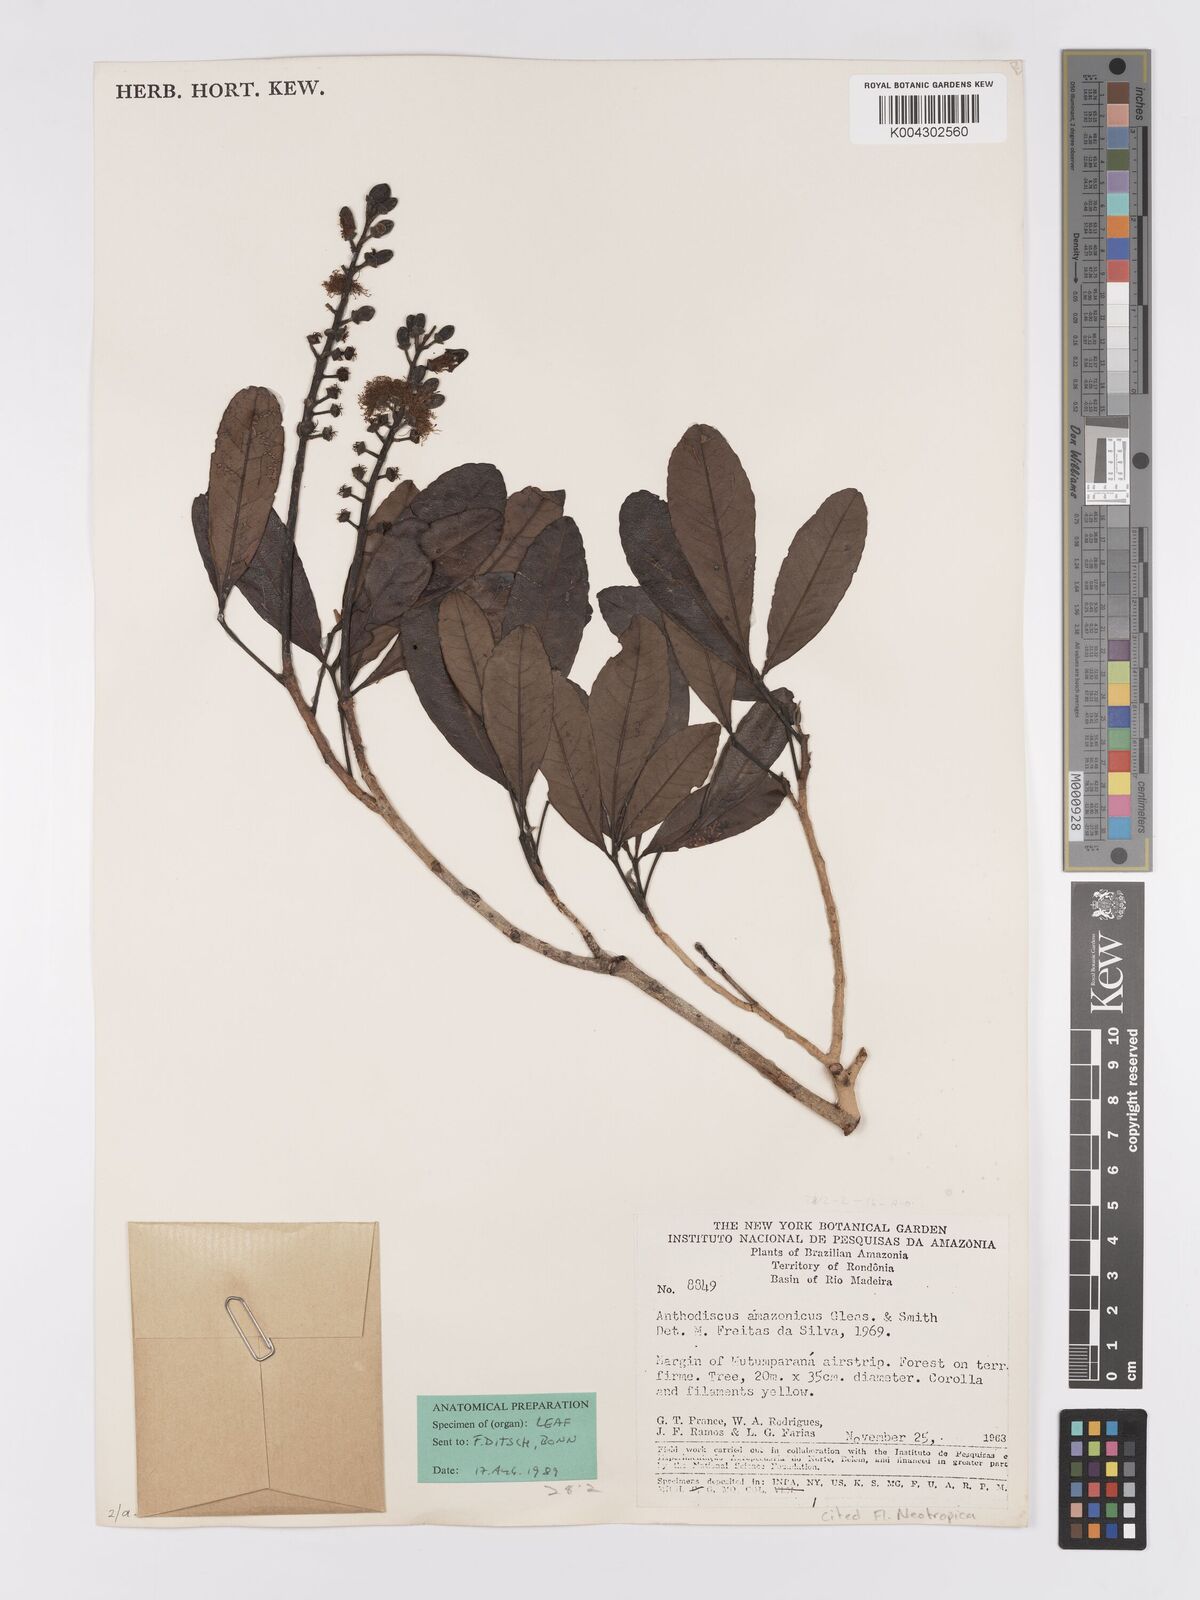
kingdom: Plantae
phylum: Tracheophyta
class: Magnoliopsida
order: Malpighiales
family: Caryocaraceae
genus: Anthodiscus
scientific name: Anthodiscus amazonicus
